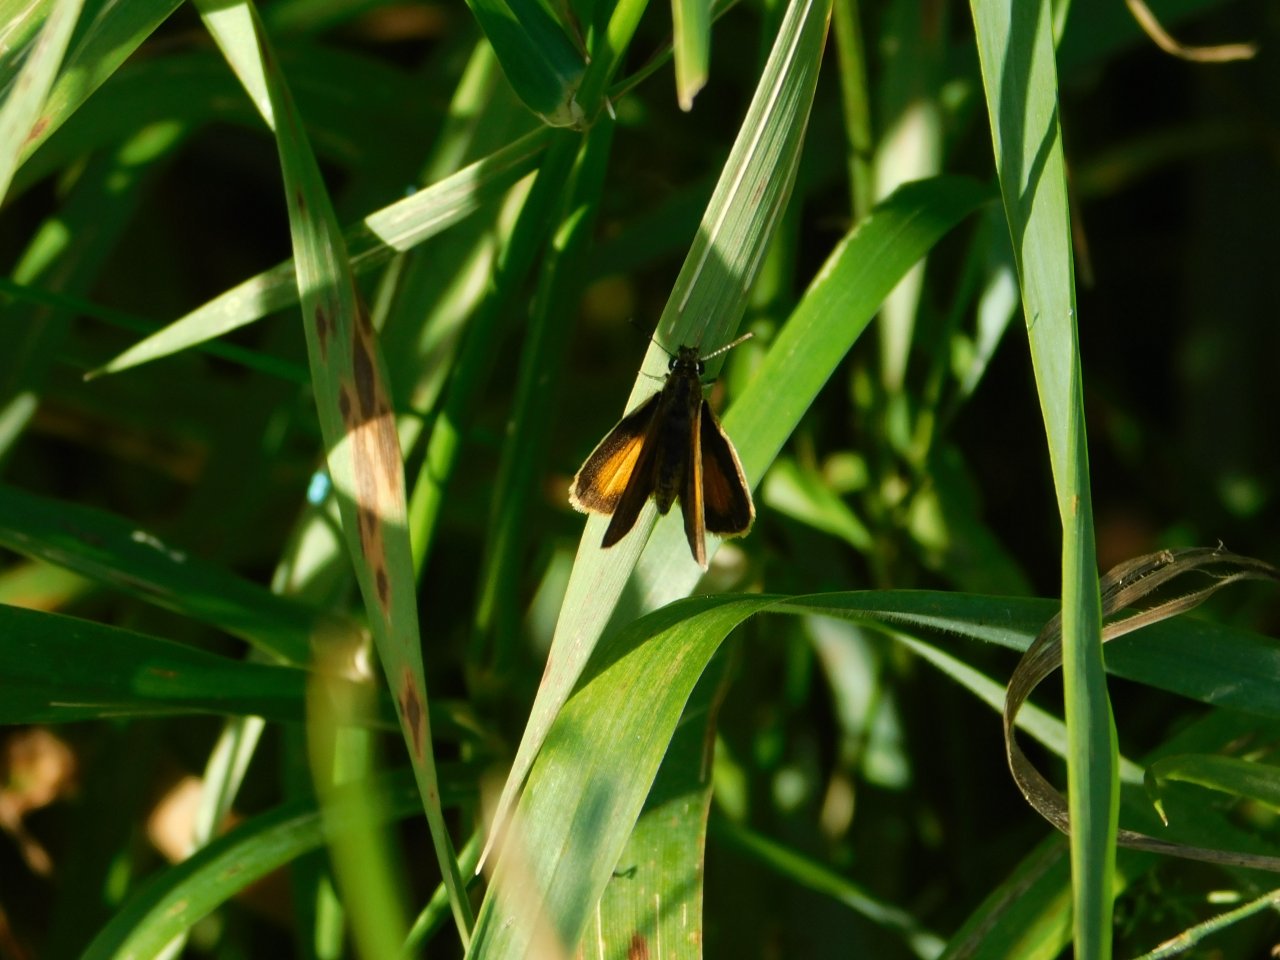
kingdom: Animalia
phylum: Arthropoda
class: Insecta
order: Lepidoptera
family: Hesperiidae
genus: Ancyloxypha
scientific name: Ancyloxypha numitor
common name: Least Skipper
